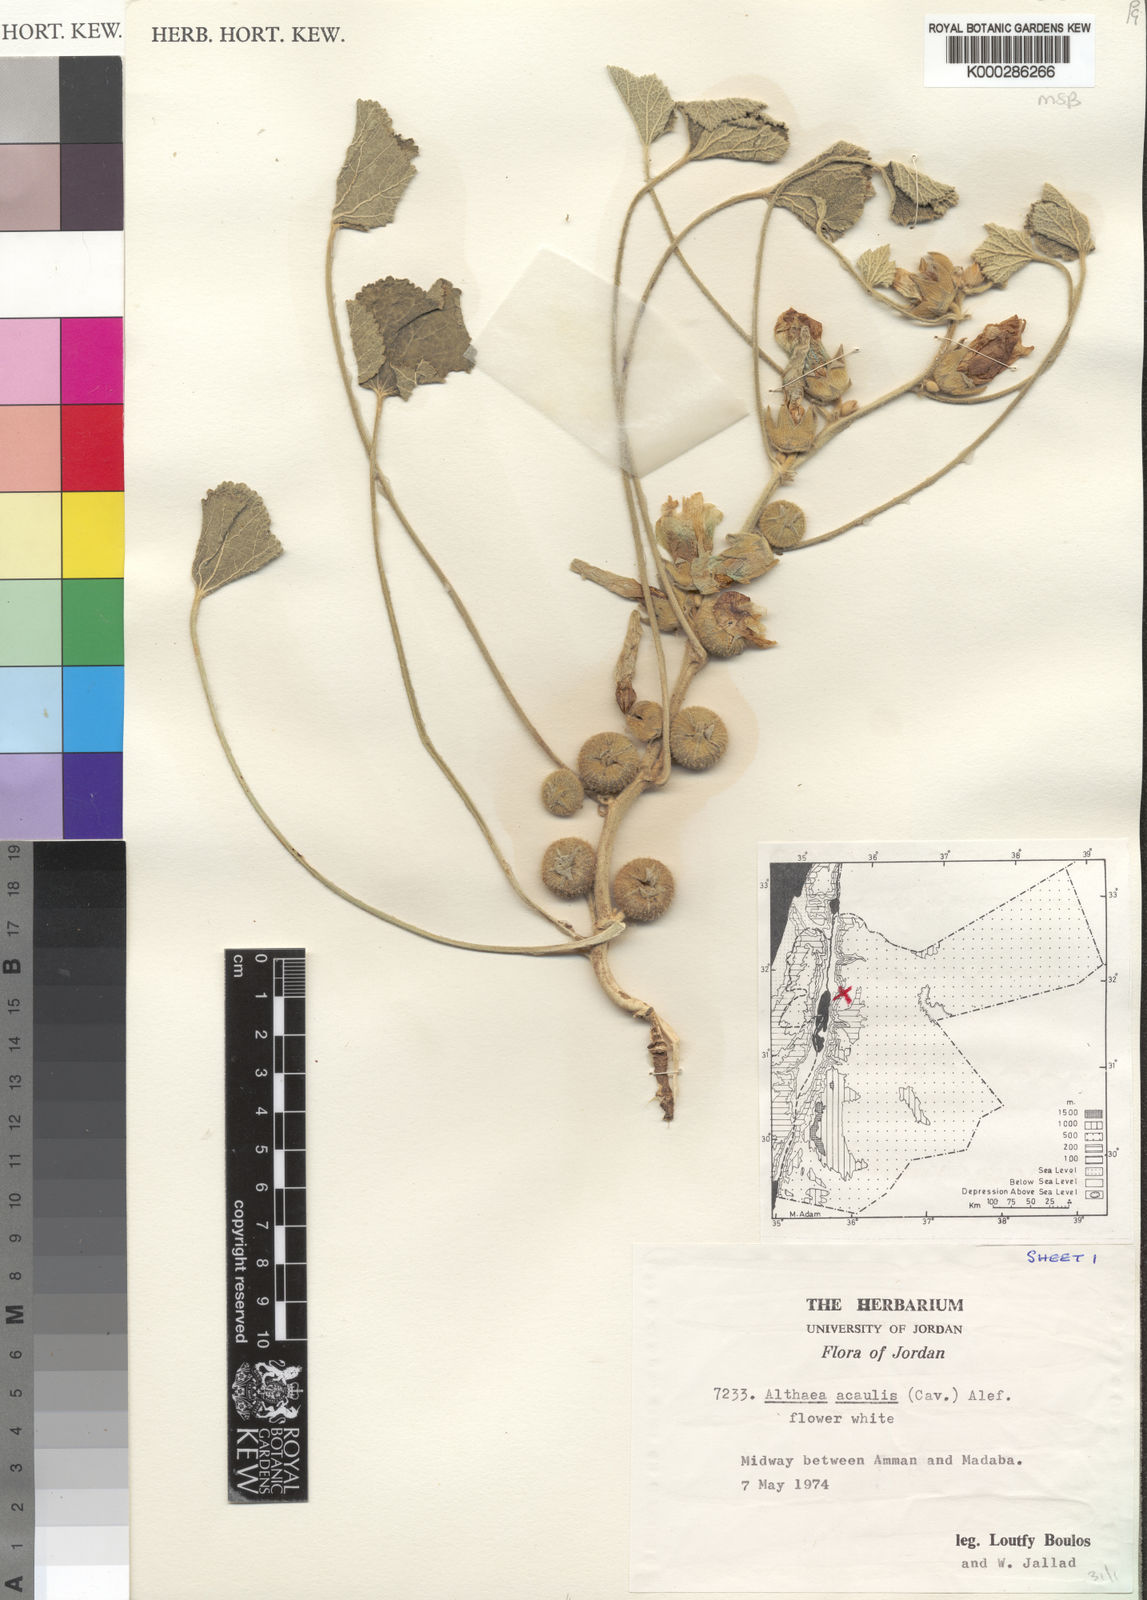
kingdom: Plantae
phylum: Tracheophyta
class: Magnoliopsida
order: Malvales
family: Malvaceae
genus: Alcea
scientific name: Alcea acaulis
